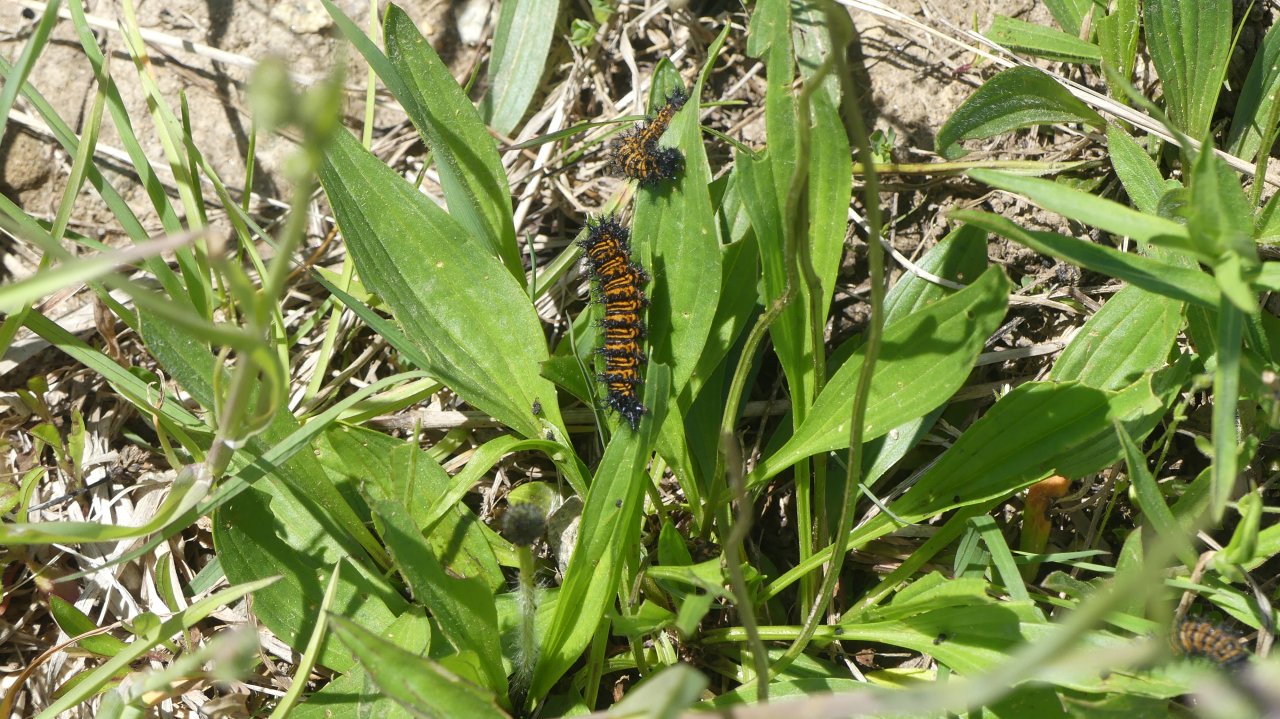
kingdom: Animalia
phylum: Arthropoda
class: Insecta
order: Lepidoptera
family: Nymphalidae
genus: Euphydryas
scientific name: Euphydryas phaeton
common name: Baltimore Checkerspot
